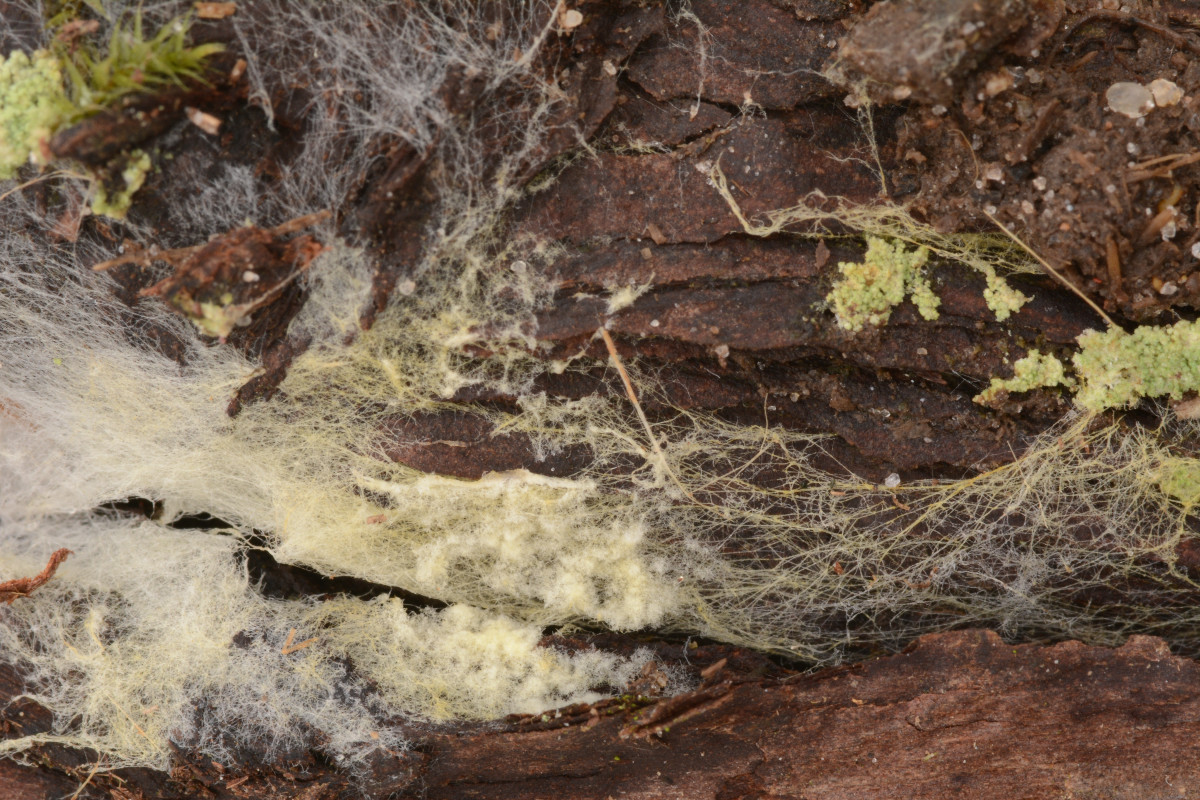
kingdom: Fungi
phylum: Basidiomycota
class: Agaricomycetes
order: Agaricales
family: Stephanosporaceae
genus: Lindtneria
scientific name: Lindtneria leucobryophila
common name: bleg citrushinde
